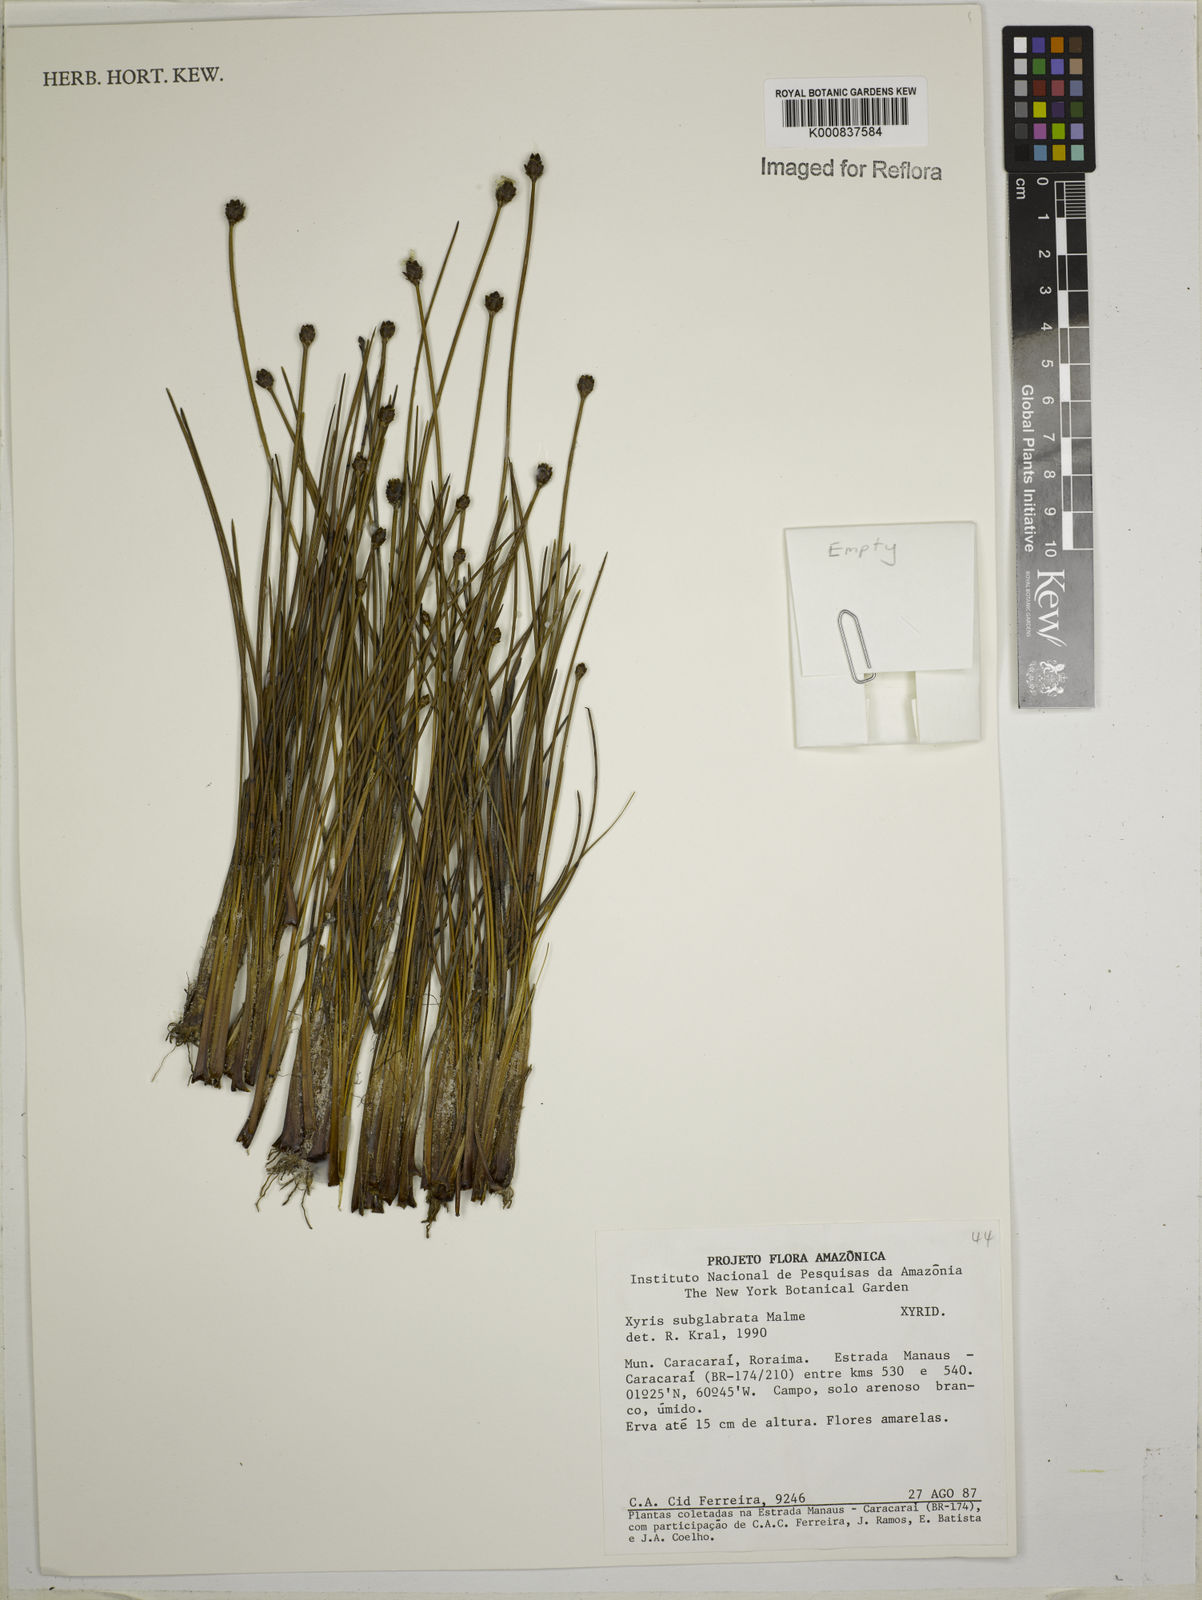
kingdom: Plantae
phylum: Tracheophyta
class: Liliopsida
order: Poales
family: Xyridaceae
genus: Xyris
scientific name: Xyris subglabrata
